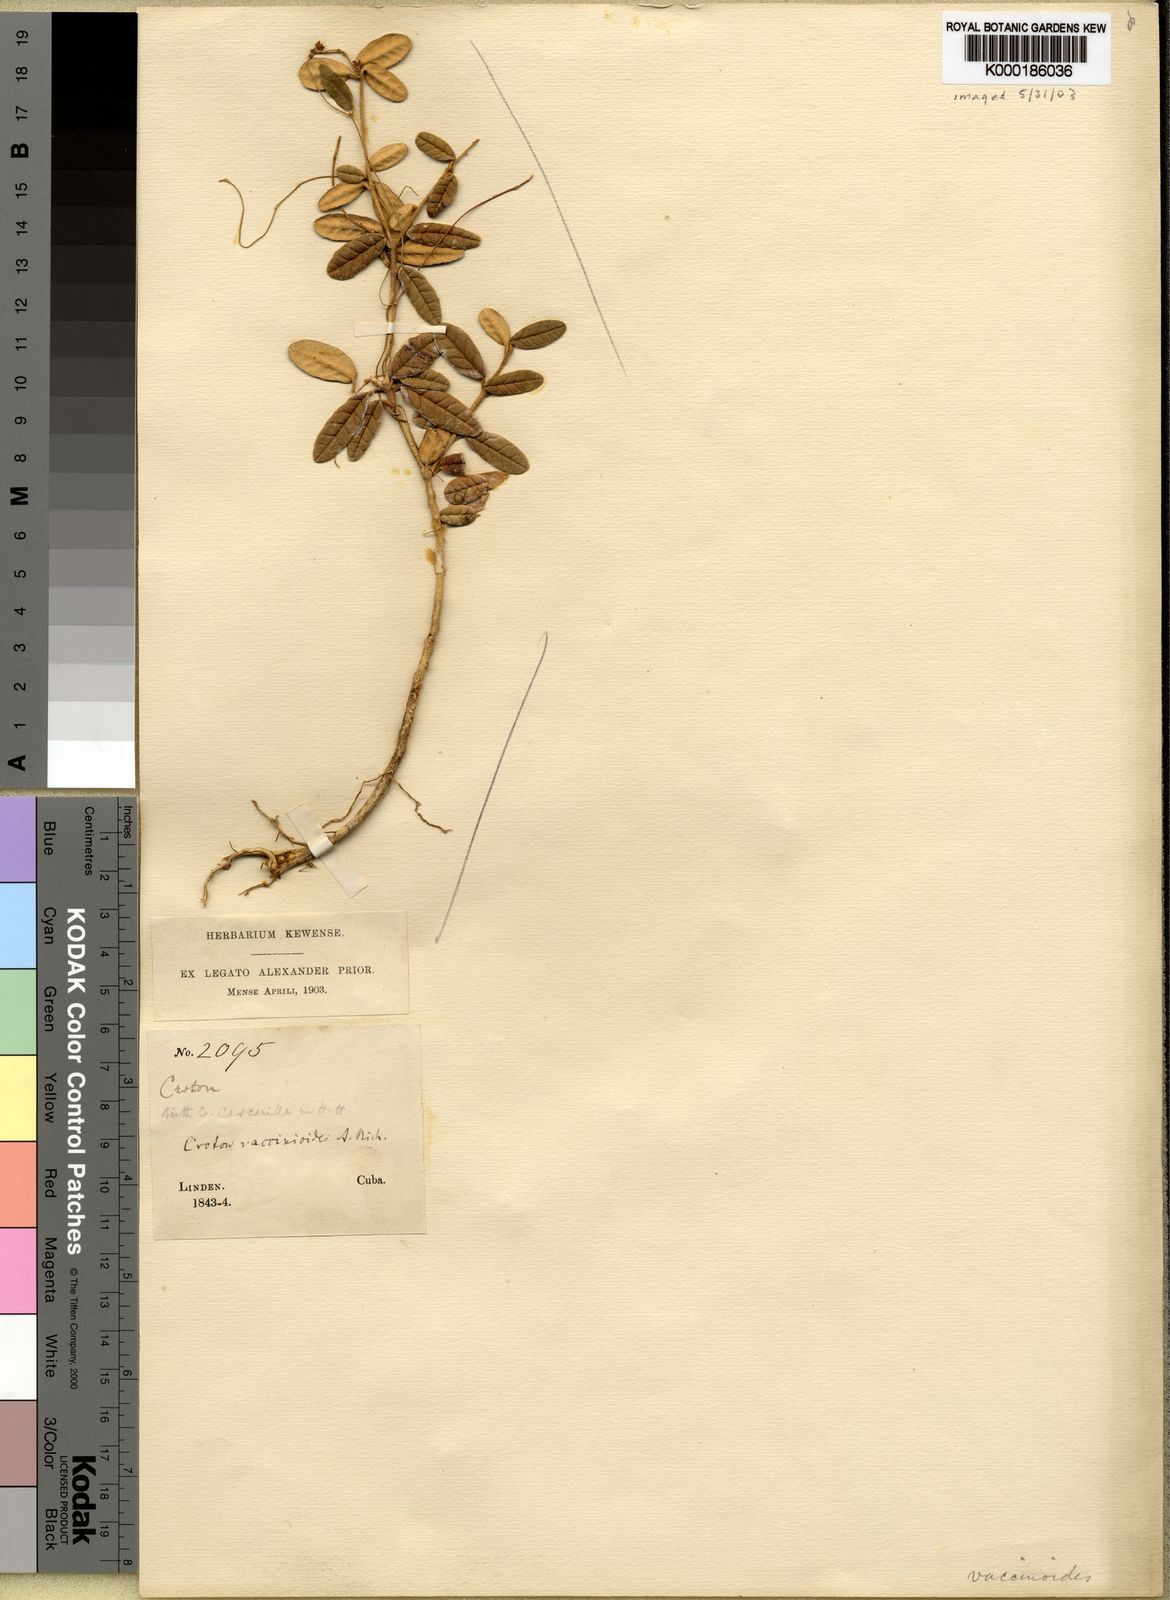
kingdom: Plantae
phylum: Tracheophyta
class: Magnoliopsida
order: Malpighiales
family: Euphorbiaceae
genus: Croton
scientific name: Croton vaccinioides
